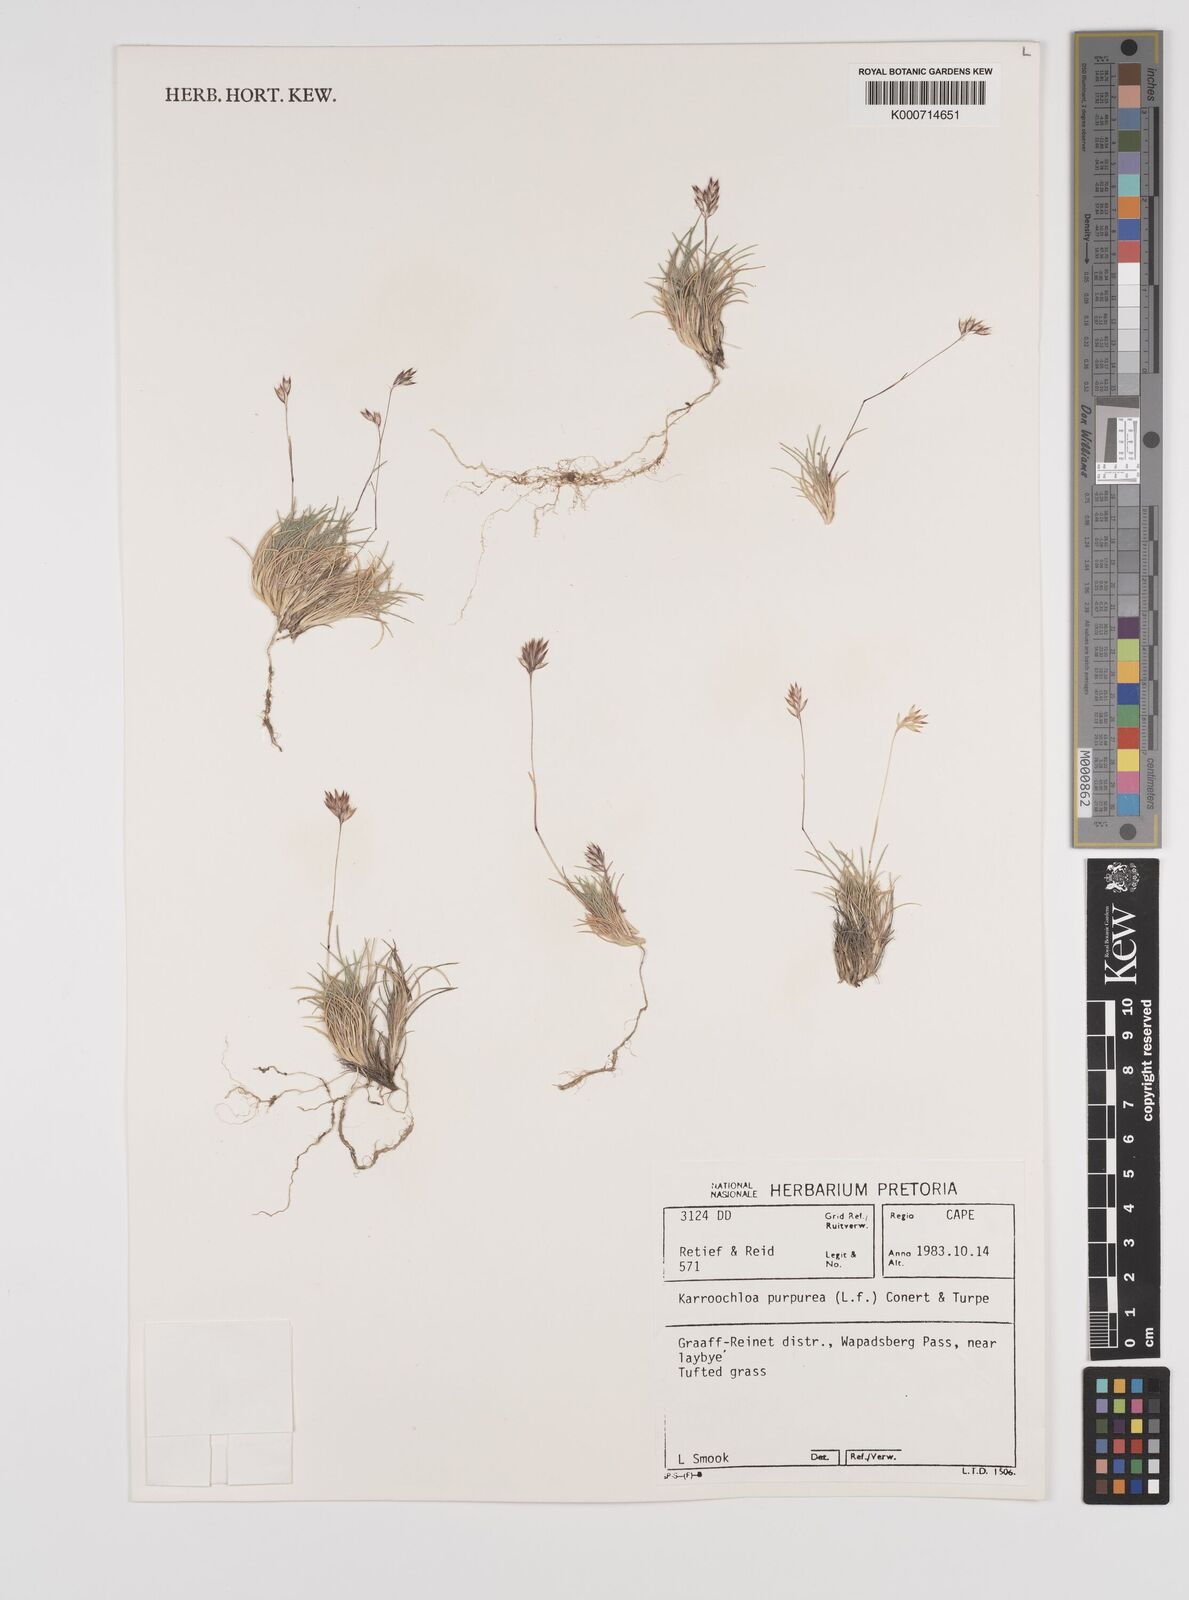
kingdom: Plantae
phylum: Tracheophyta
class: Liliopsida
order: Poales
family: Poaceae
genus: Rytidosperma
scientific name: Rytidosperma
